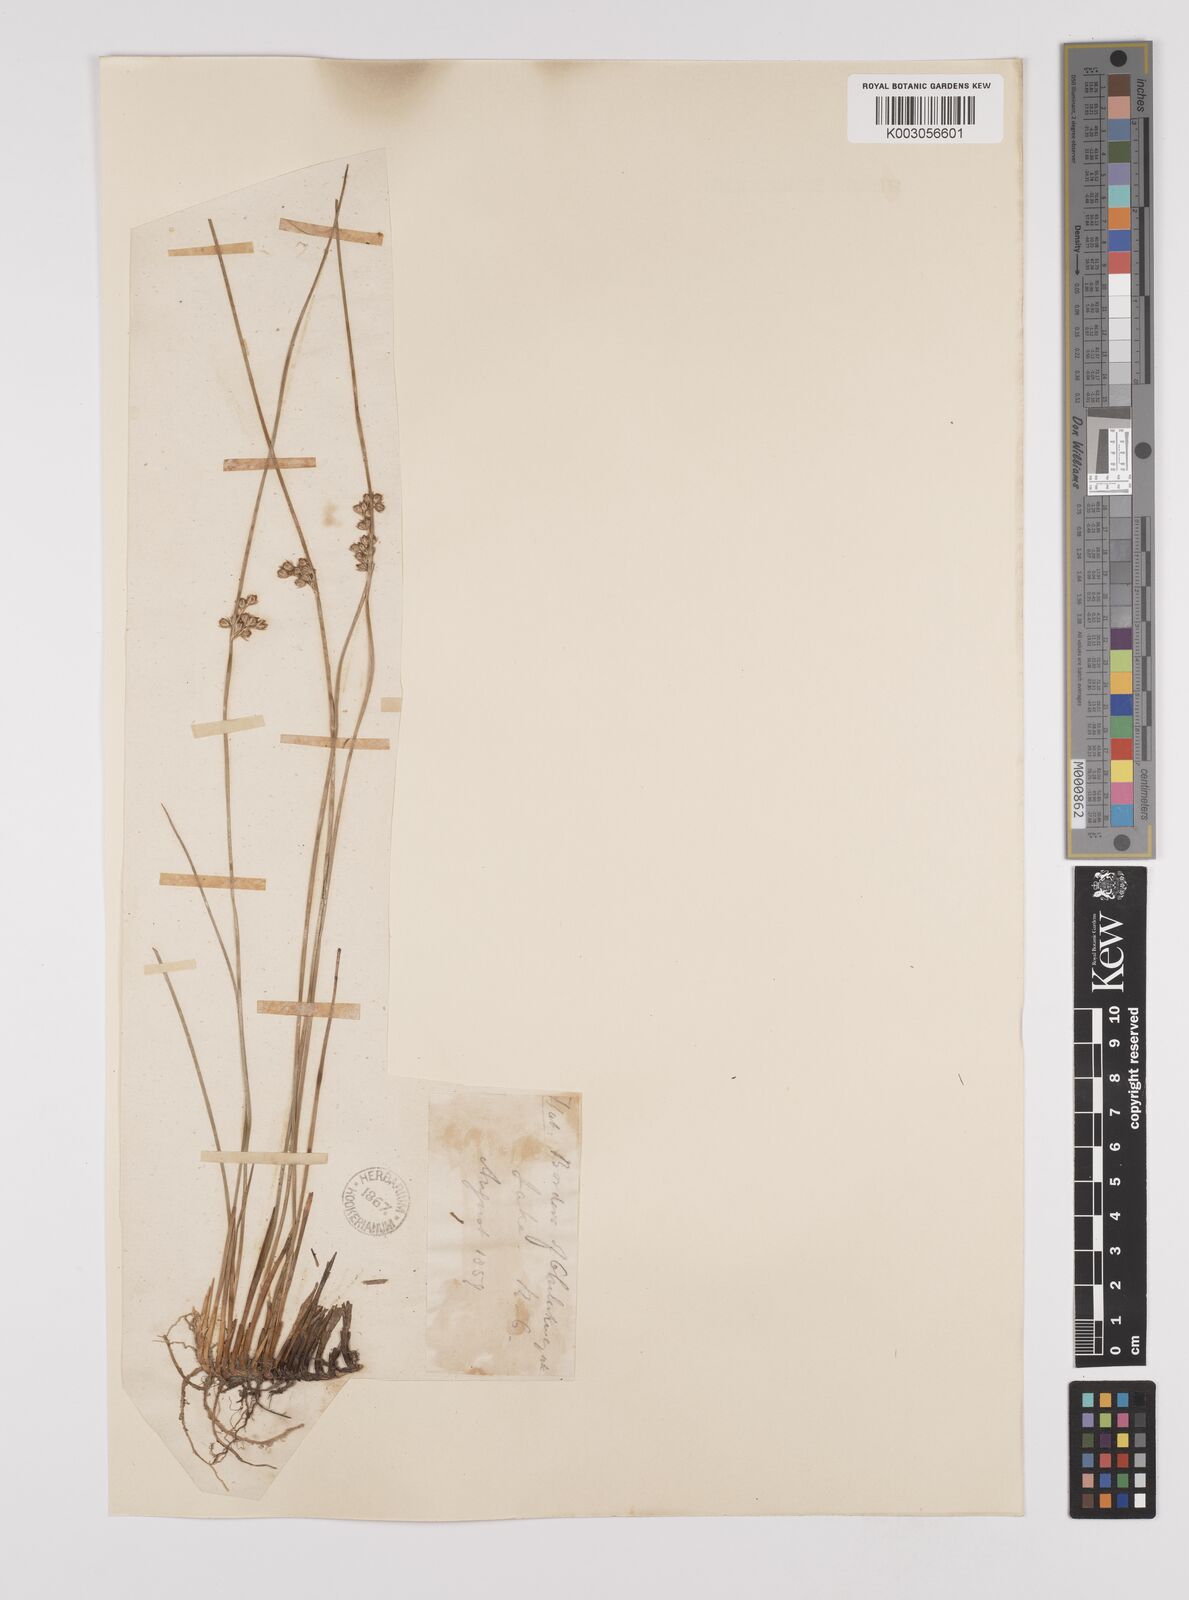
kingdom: Plantae
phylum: Tracheophyta
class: Liliopsida
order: Poales
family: Juncaceae
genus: Juncus
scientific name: Juncus filiformis
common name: Thread rush
